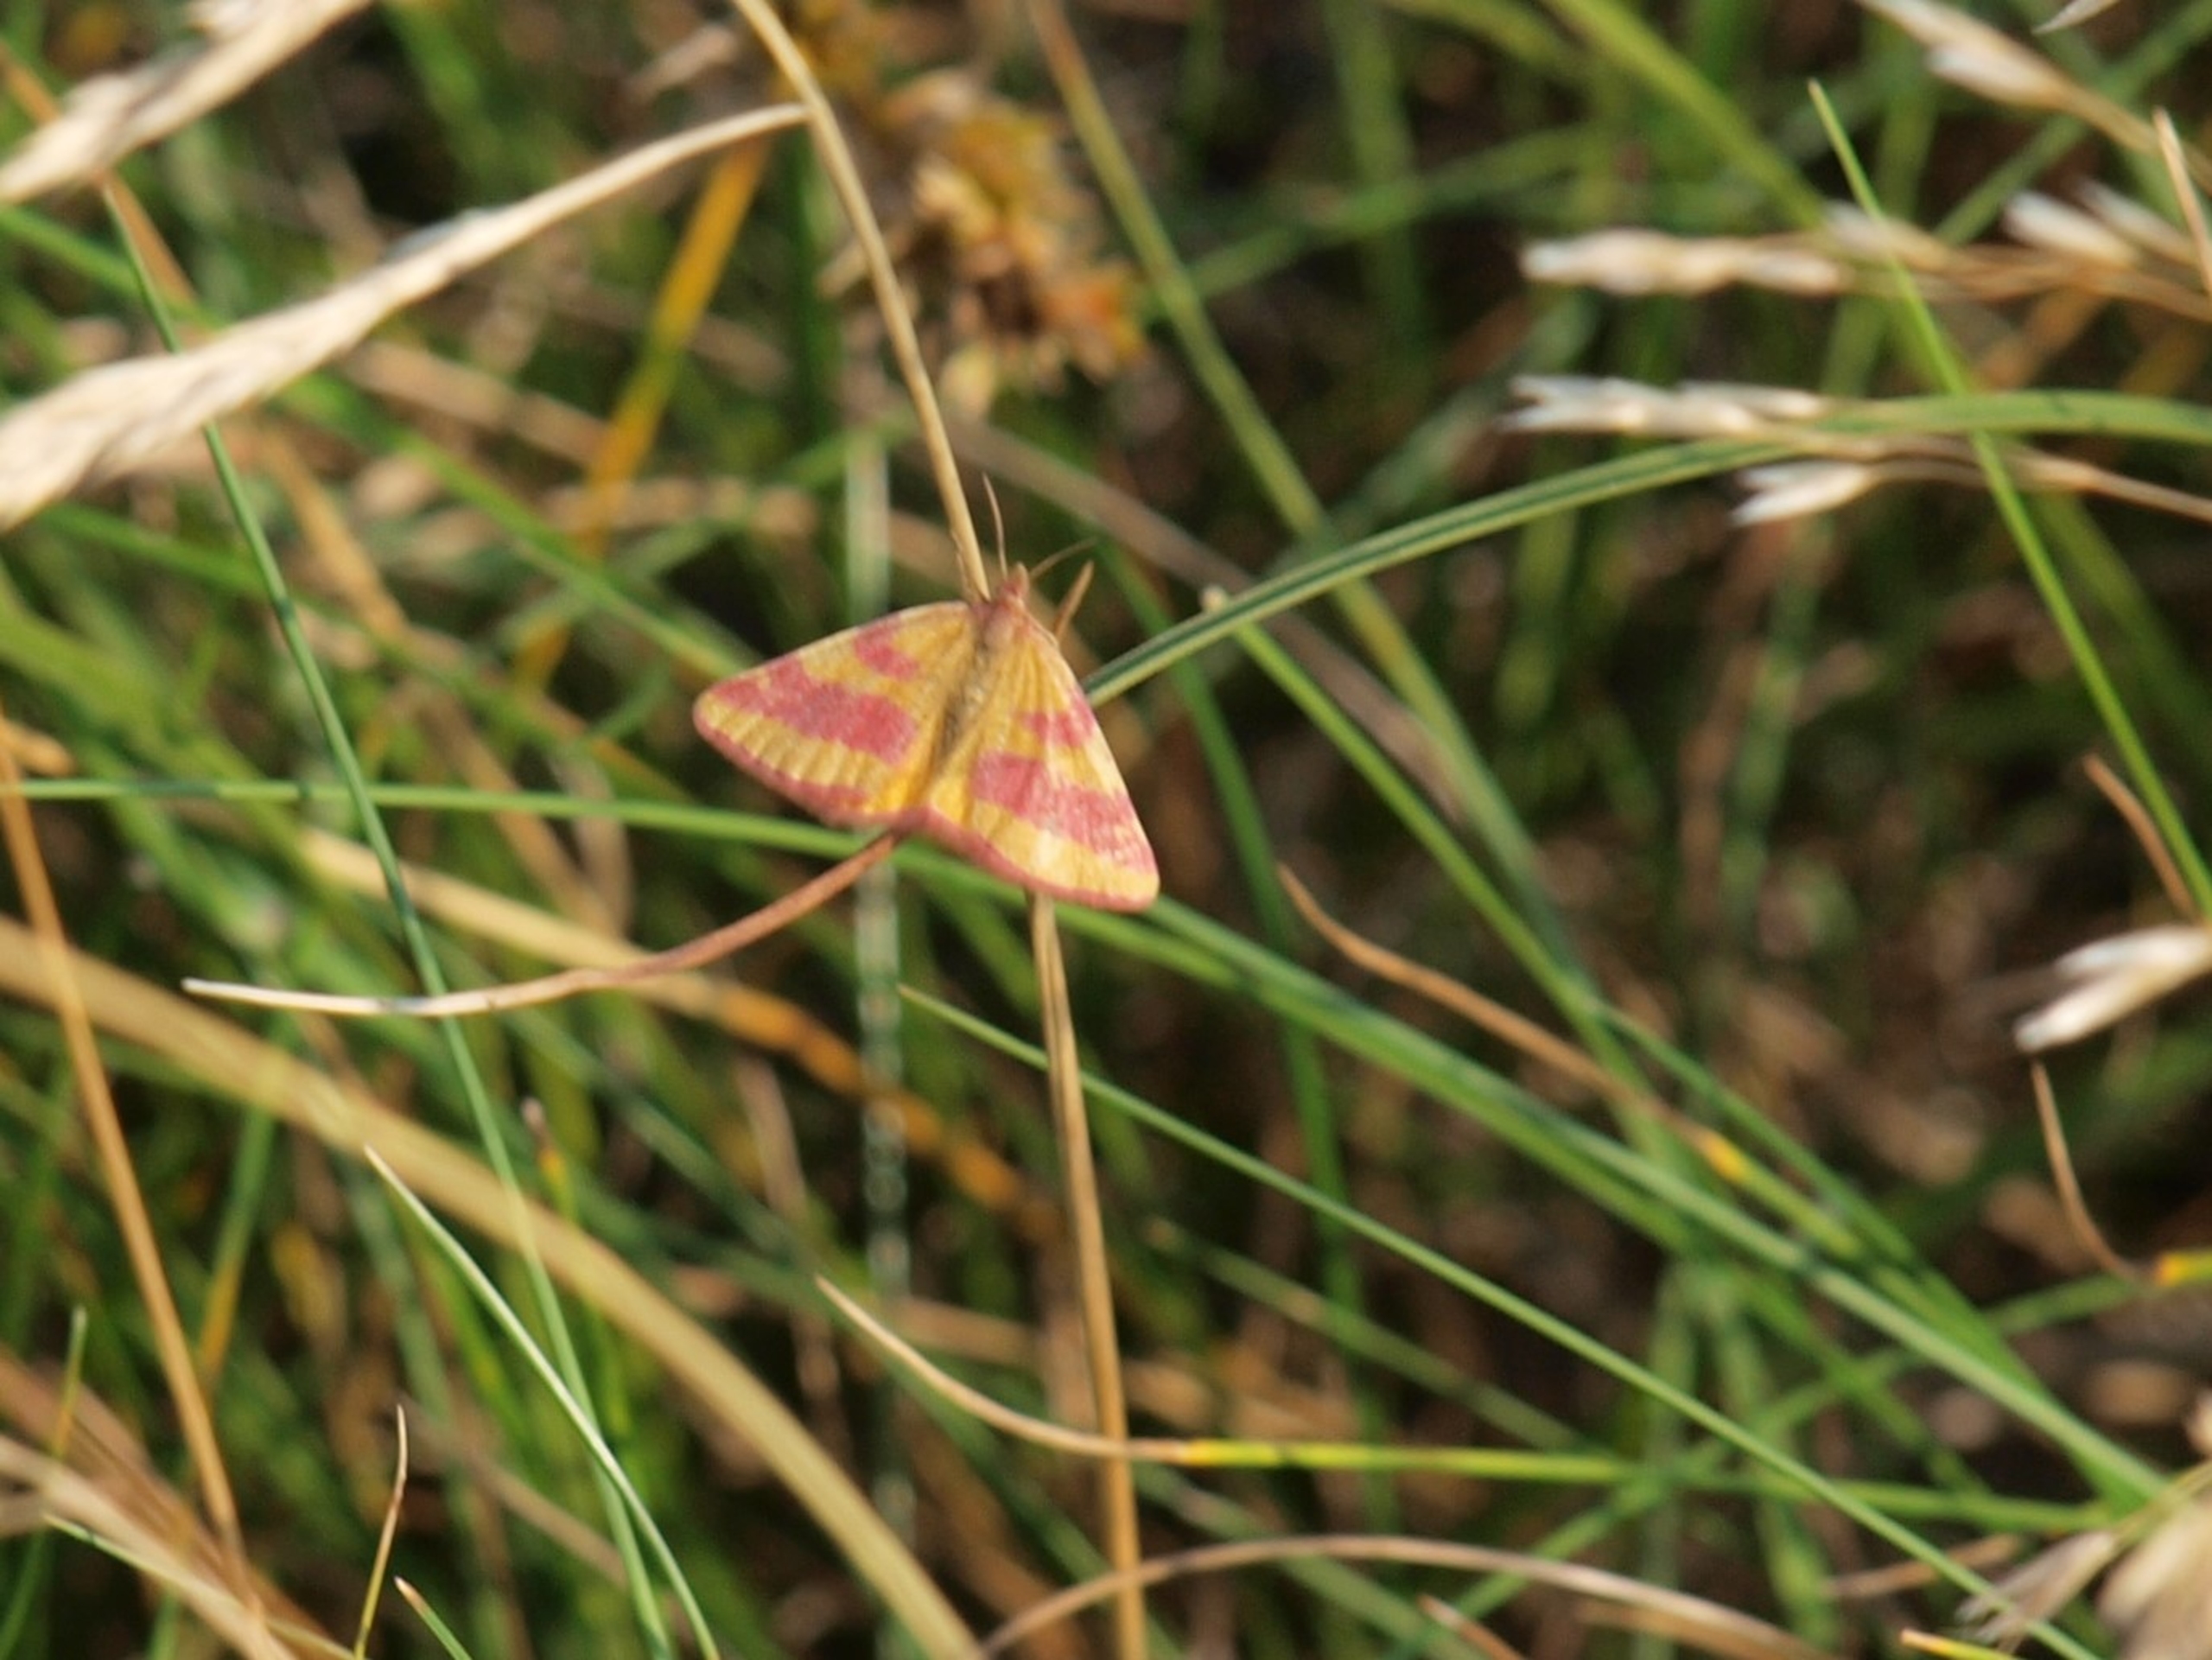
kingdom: Animalia
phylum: Arthropoda
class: Insecta
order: Lepidoptera
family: Geometridae
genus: Lythria
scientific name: Lythria cruentaria
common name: Purpurmåler
